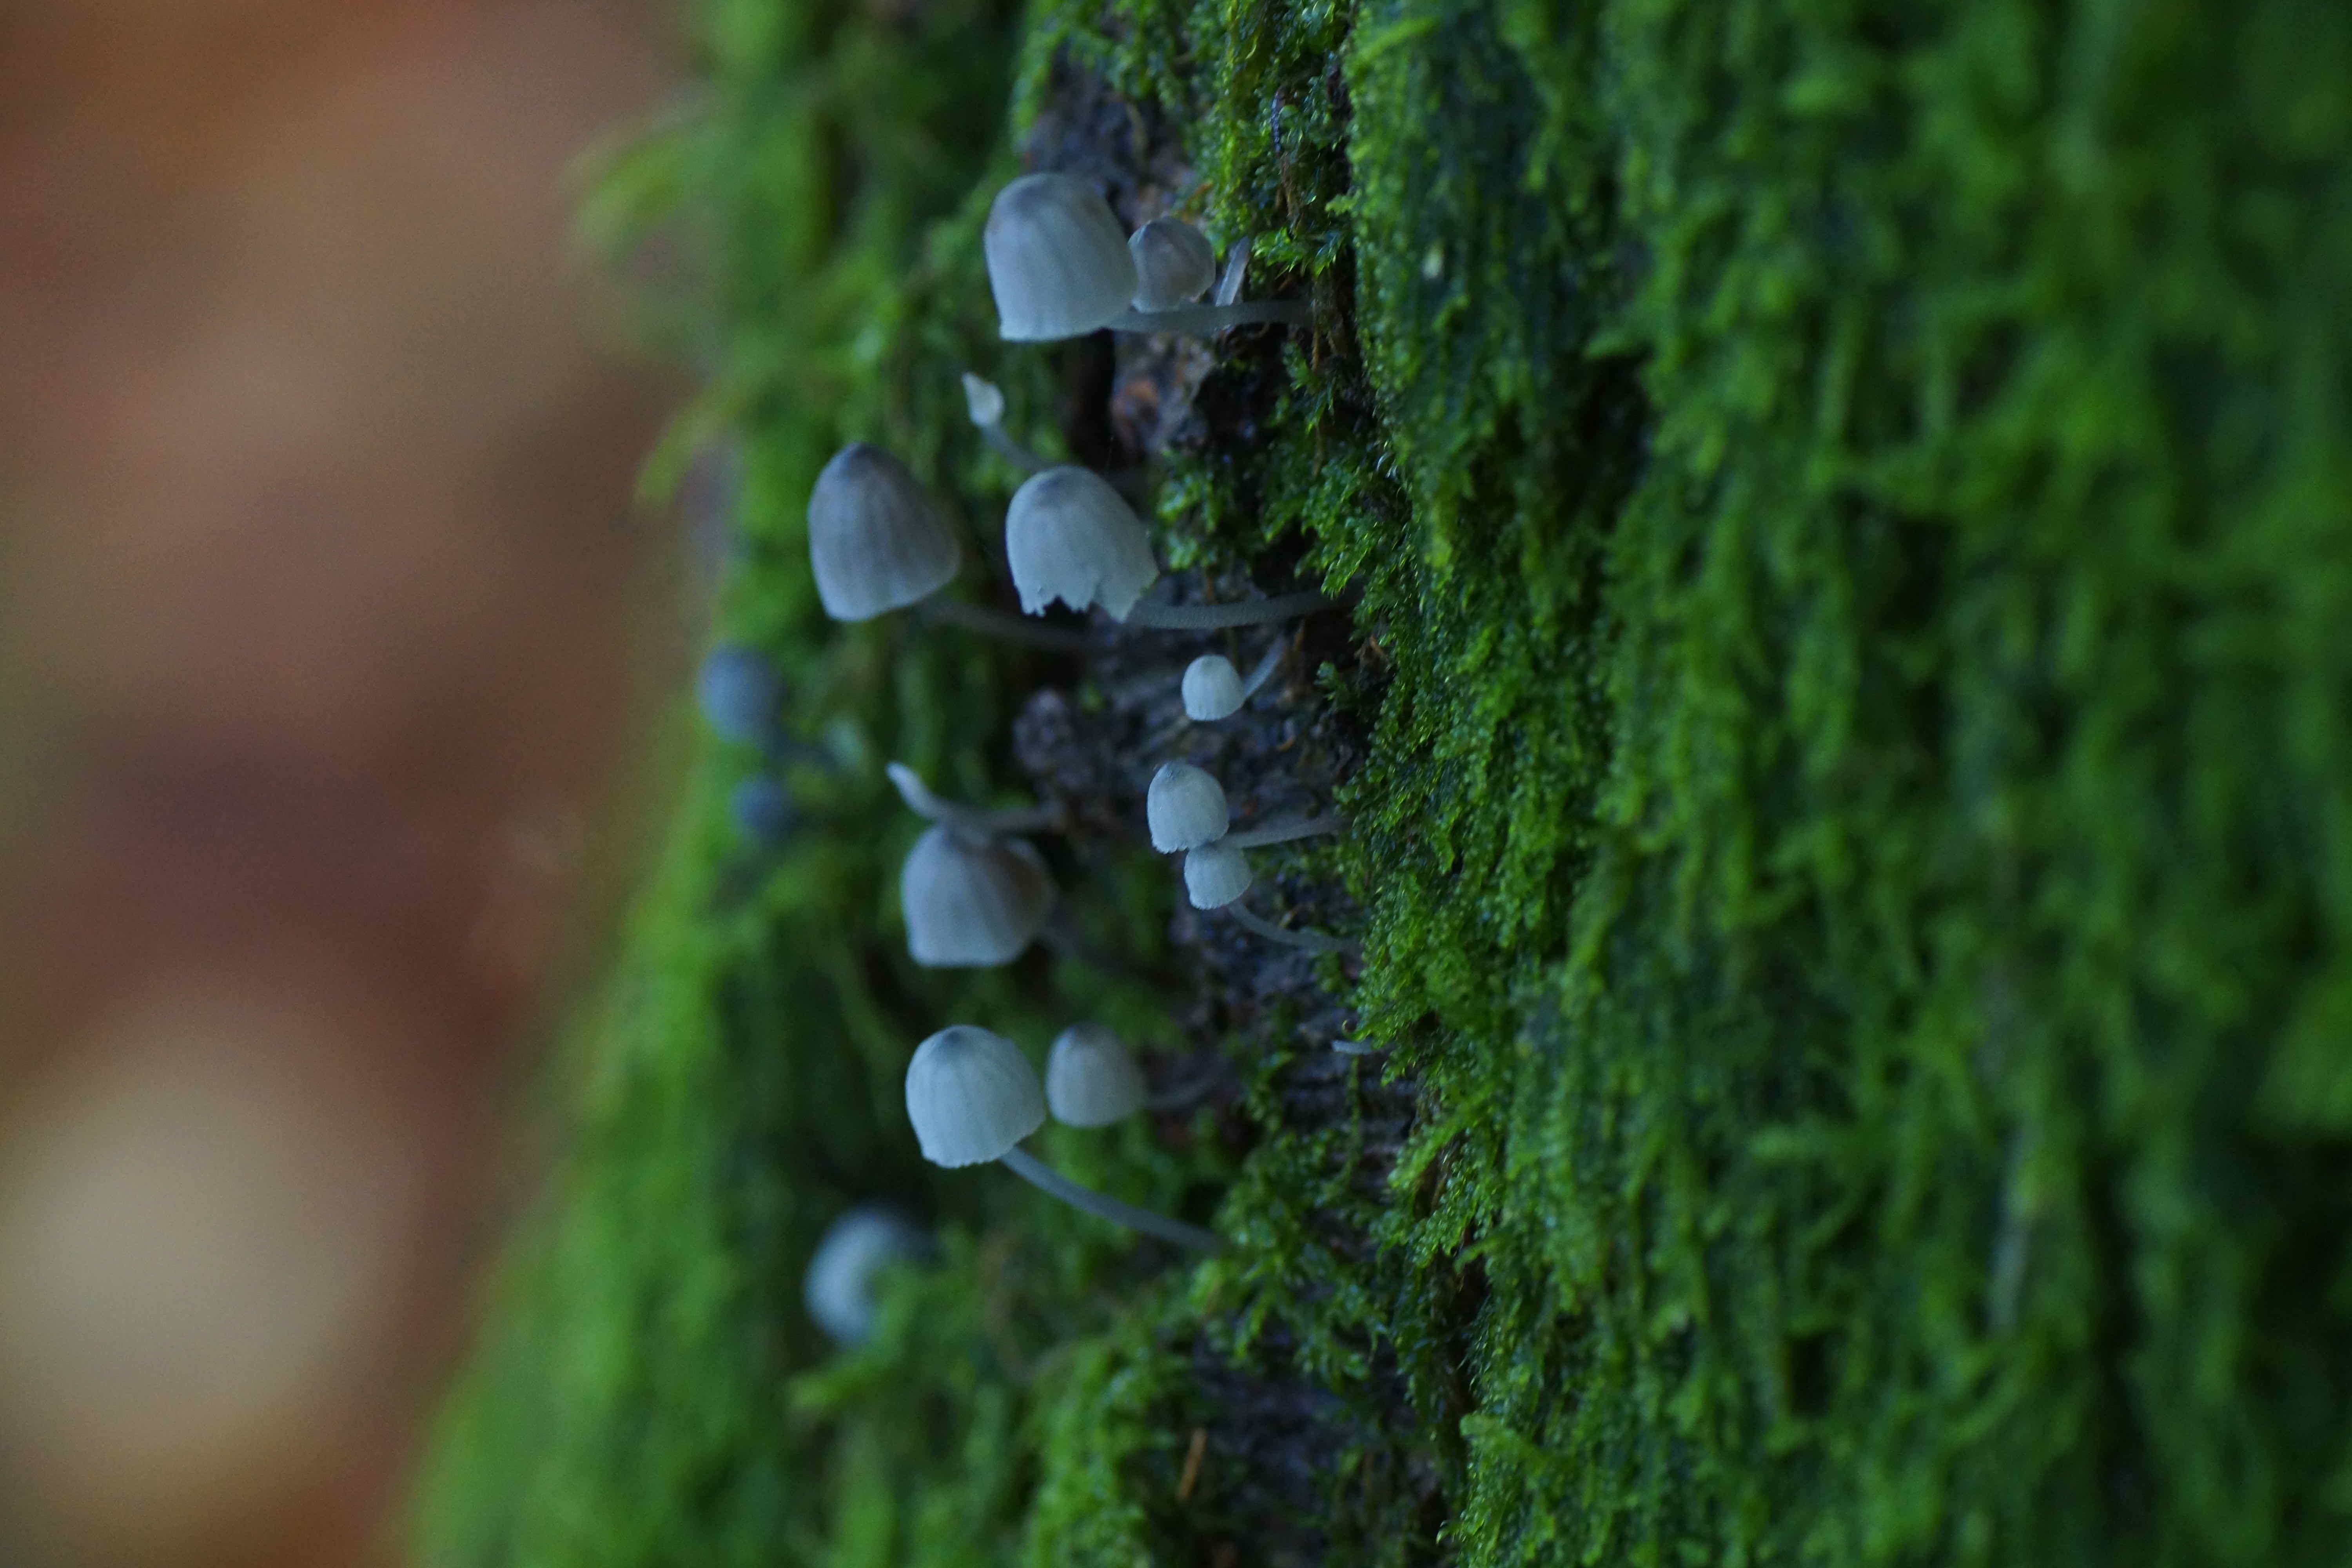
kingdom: Fungi
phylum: Basidiomycota
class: Agaricomycetes
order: Agaricales
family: Mycenaceae
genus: Mycena
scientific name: Mycena pseudocorticola
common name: gråblå bark-huesvamp
